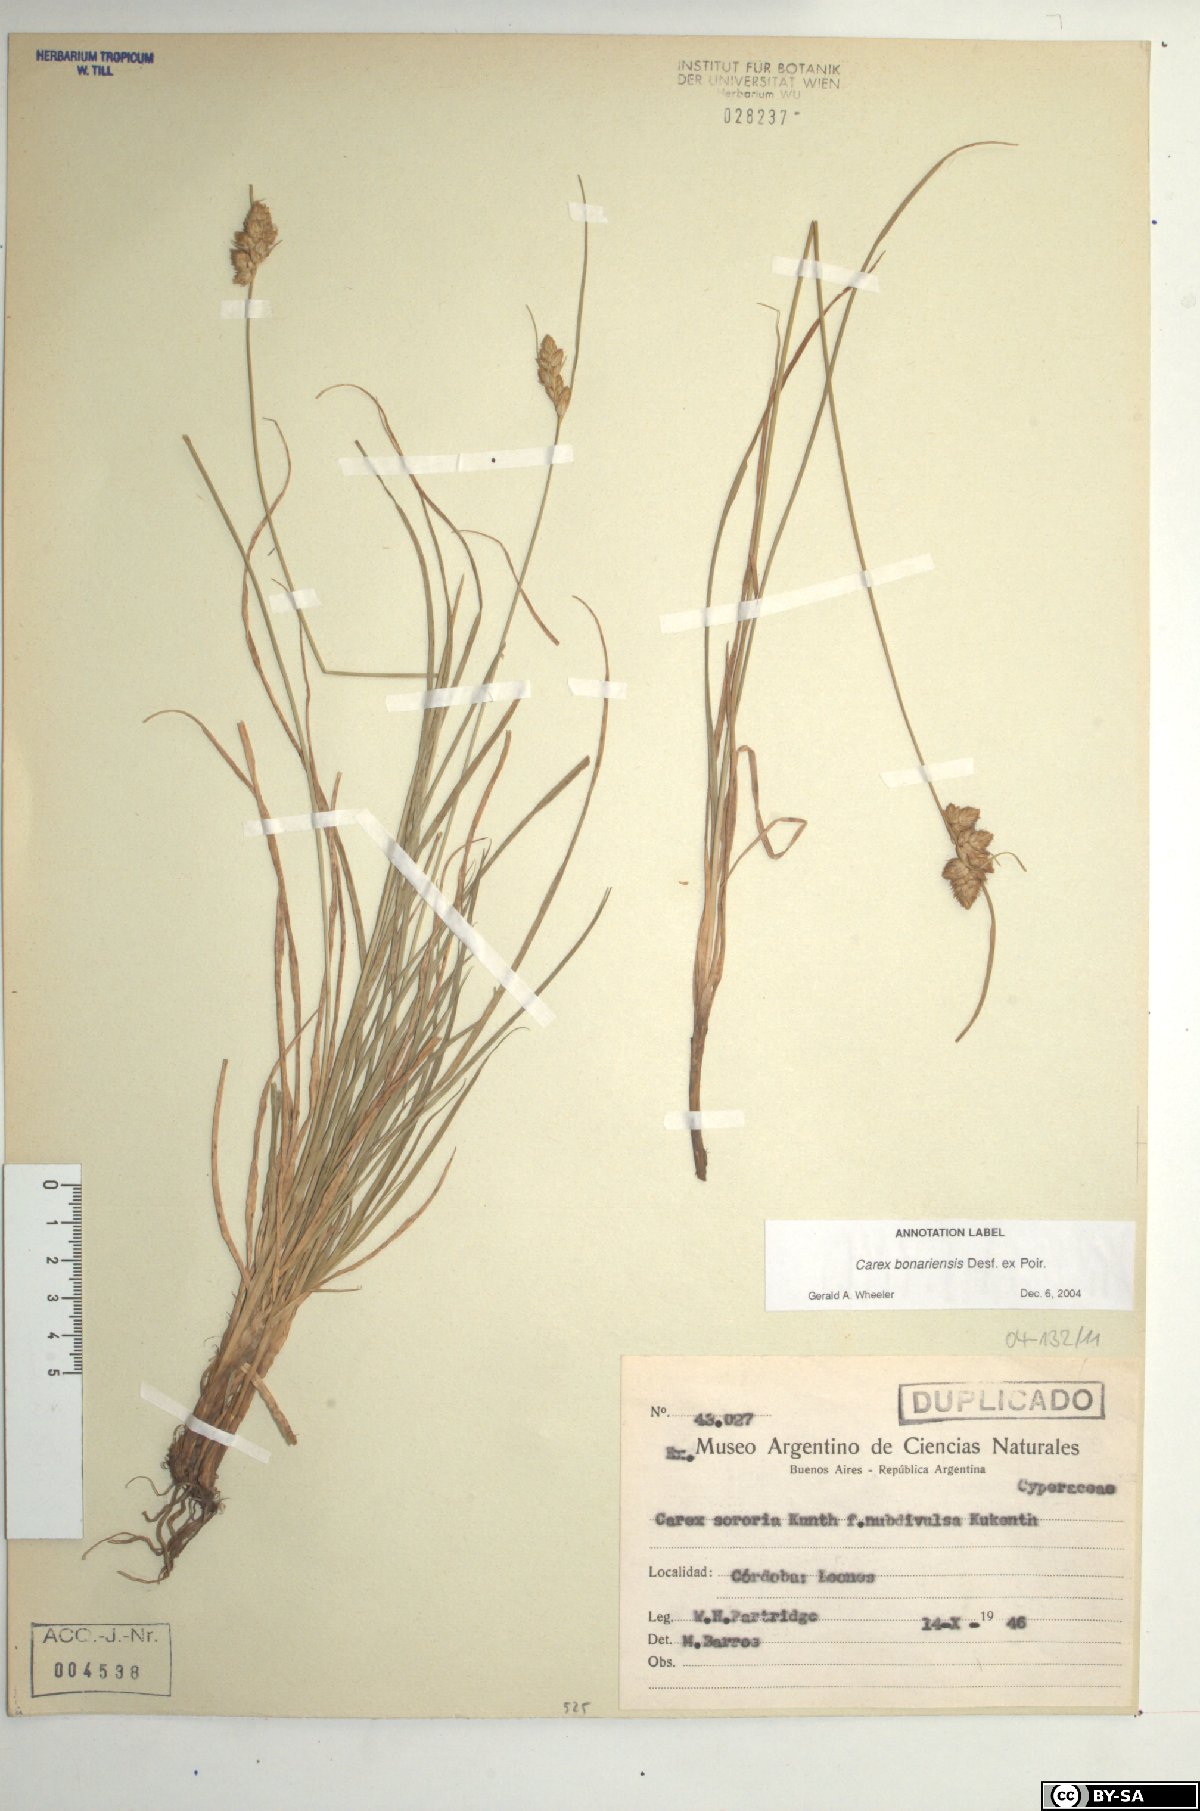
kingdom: Plantae
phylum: Tracheophyta
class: Liliopsida
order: Poales
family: Cyperaceae
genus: Carex
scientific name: Carex bonariensis
